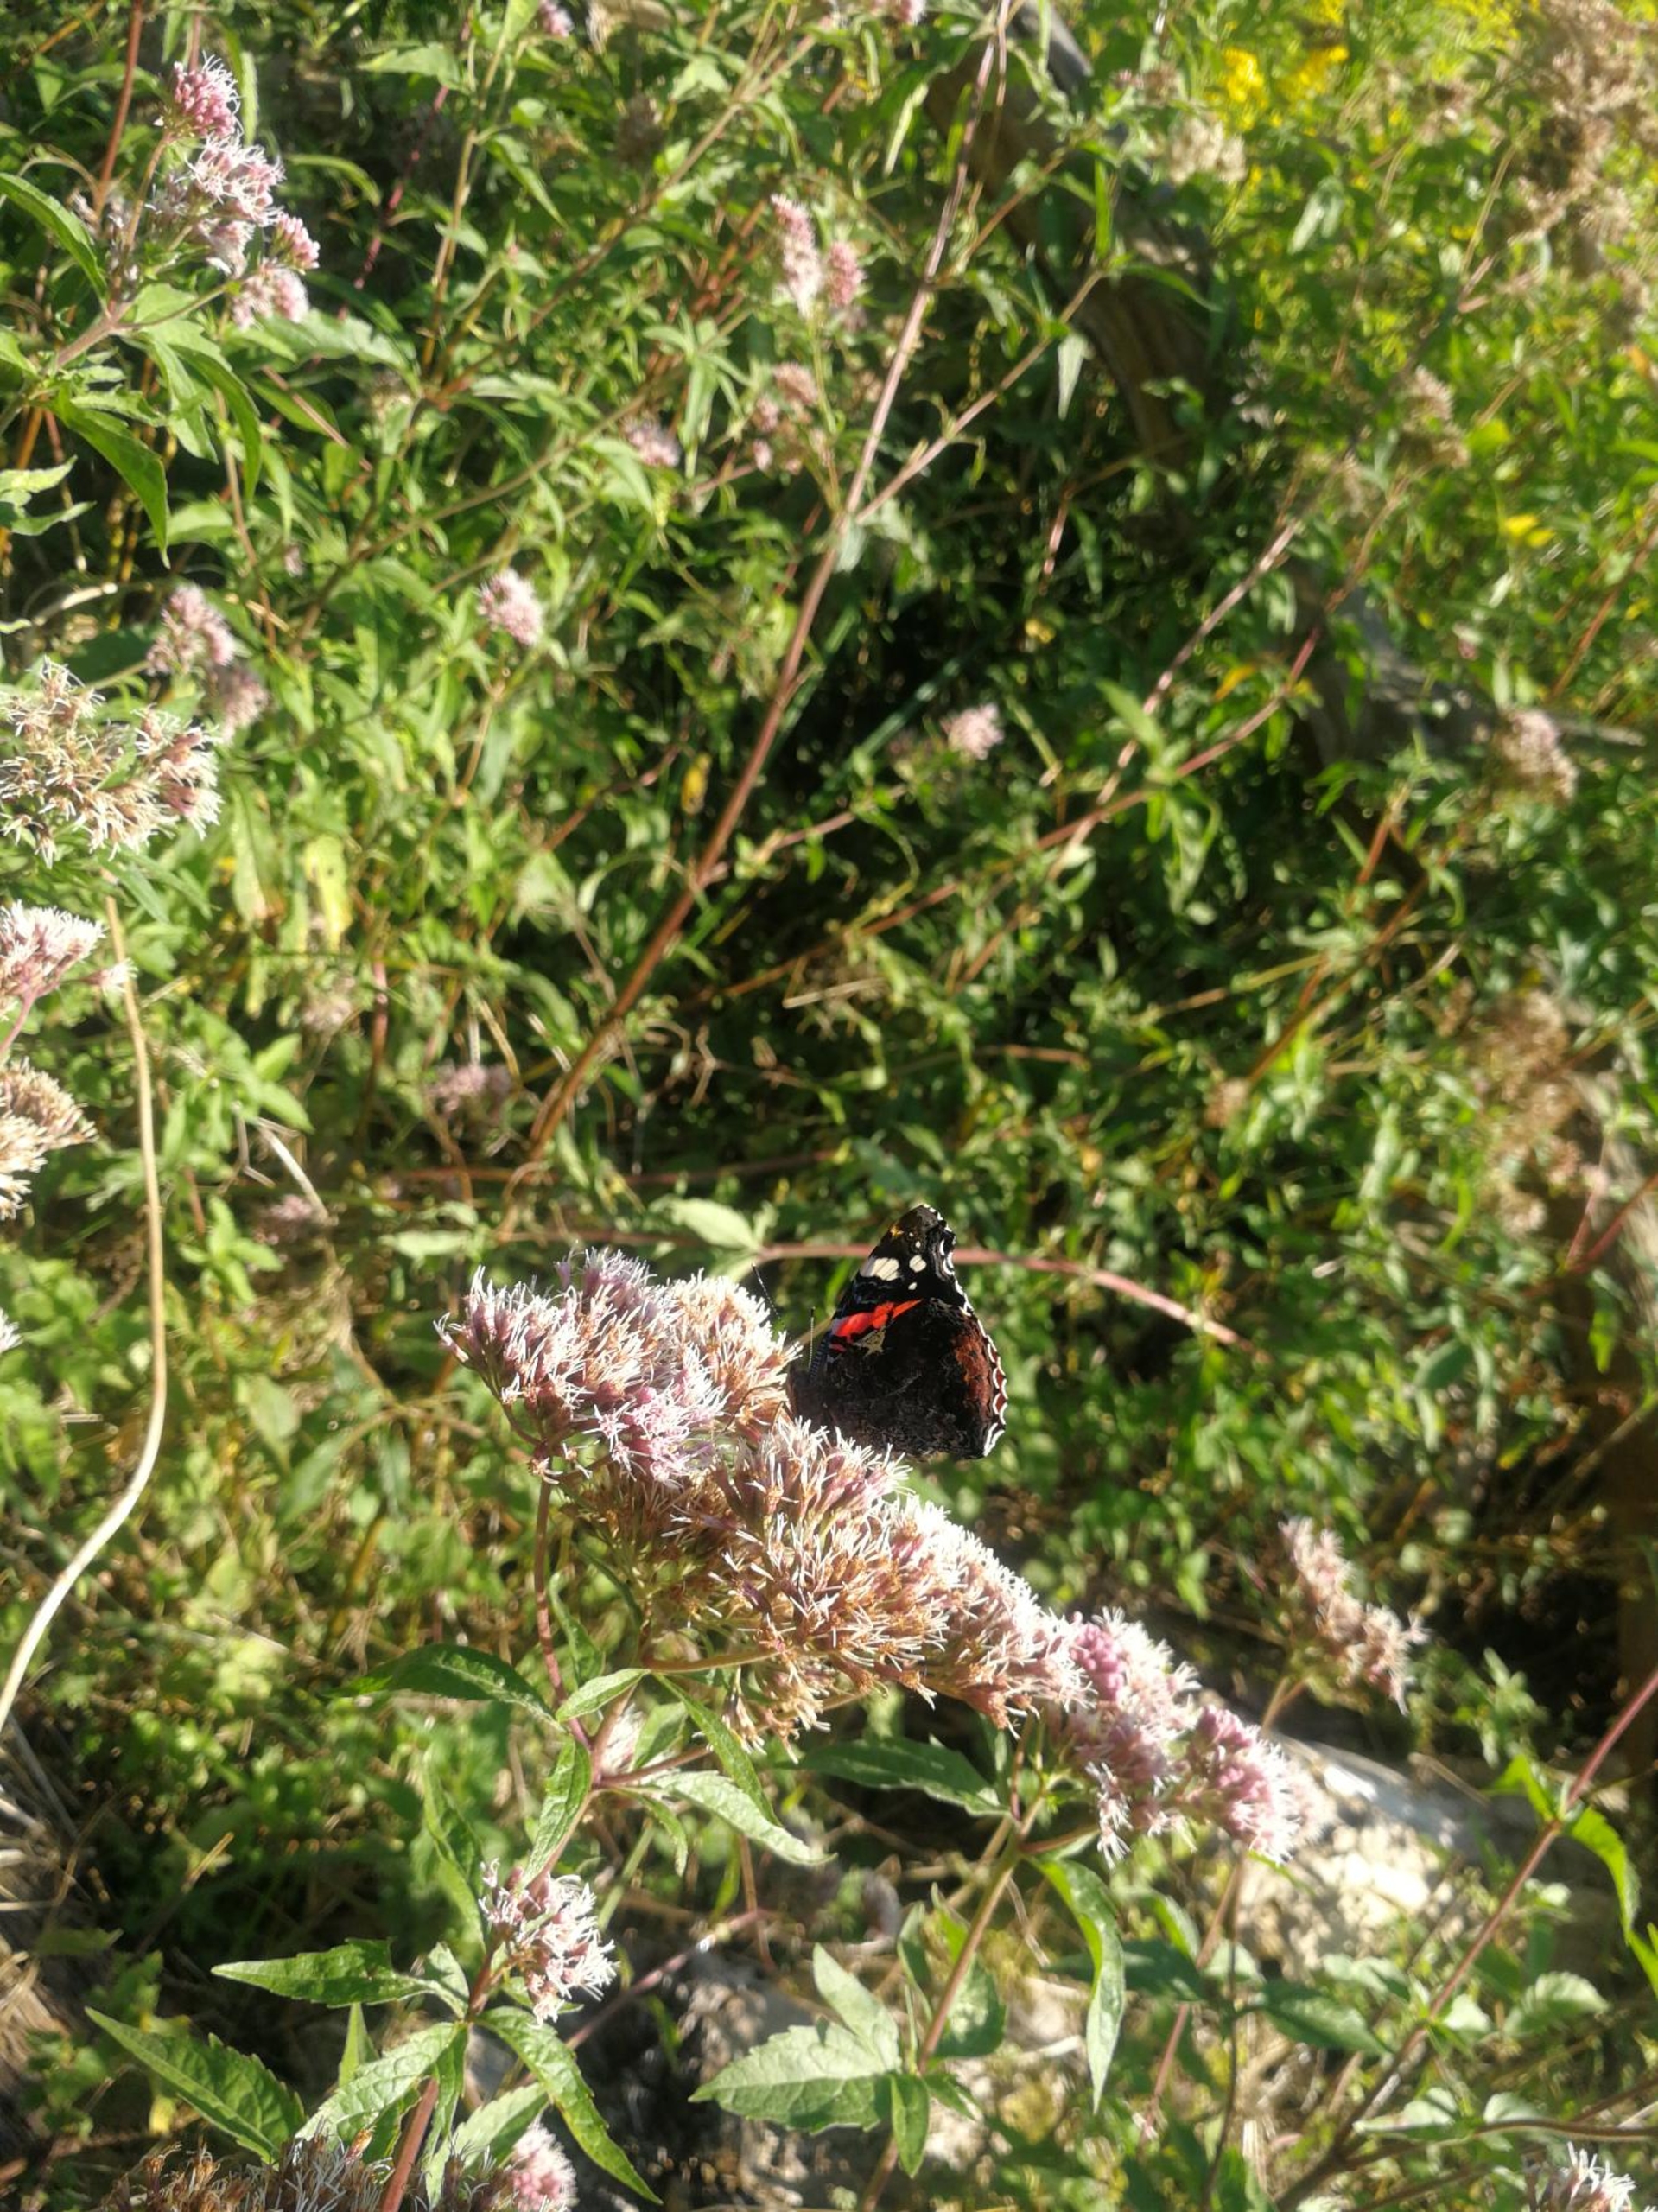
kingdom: Animalia
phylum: Arthropoda
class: Insecta
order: Lepidoptera
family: Nymphalidae
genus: Vanessa
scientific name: Vanessa atalanta
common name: Admiral
